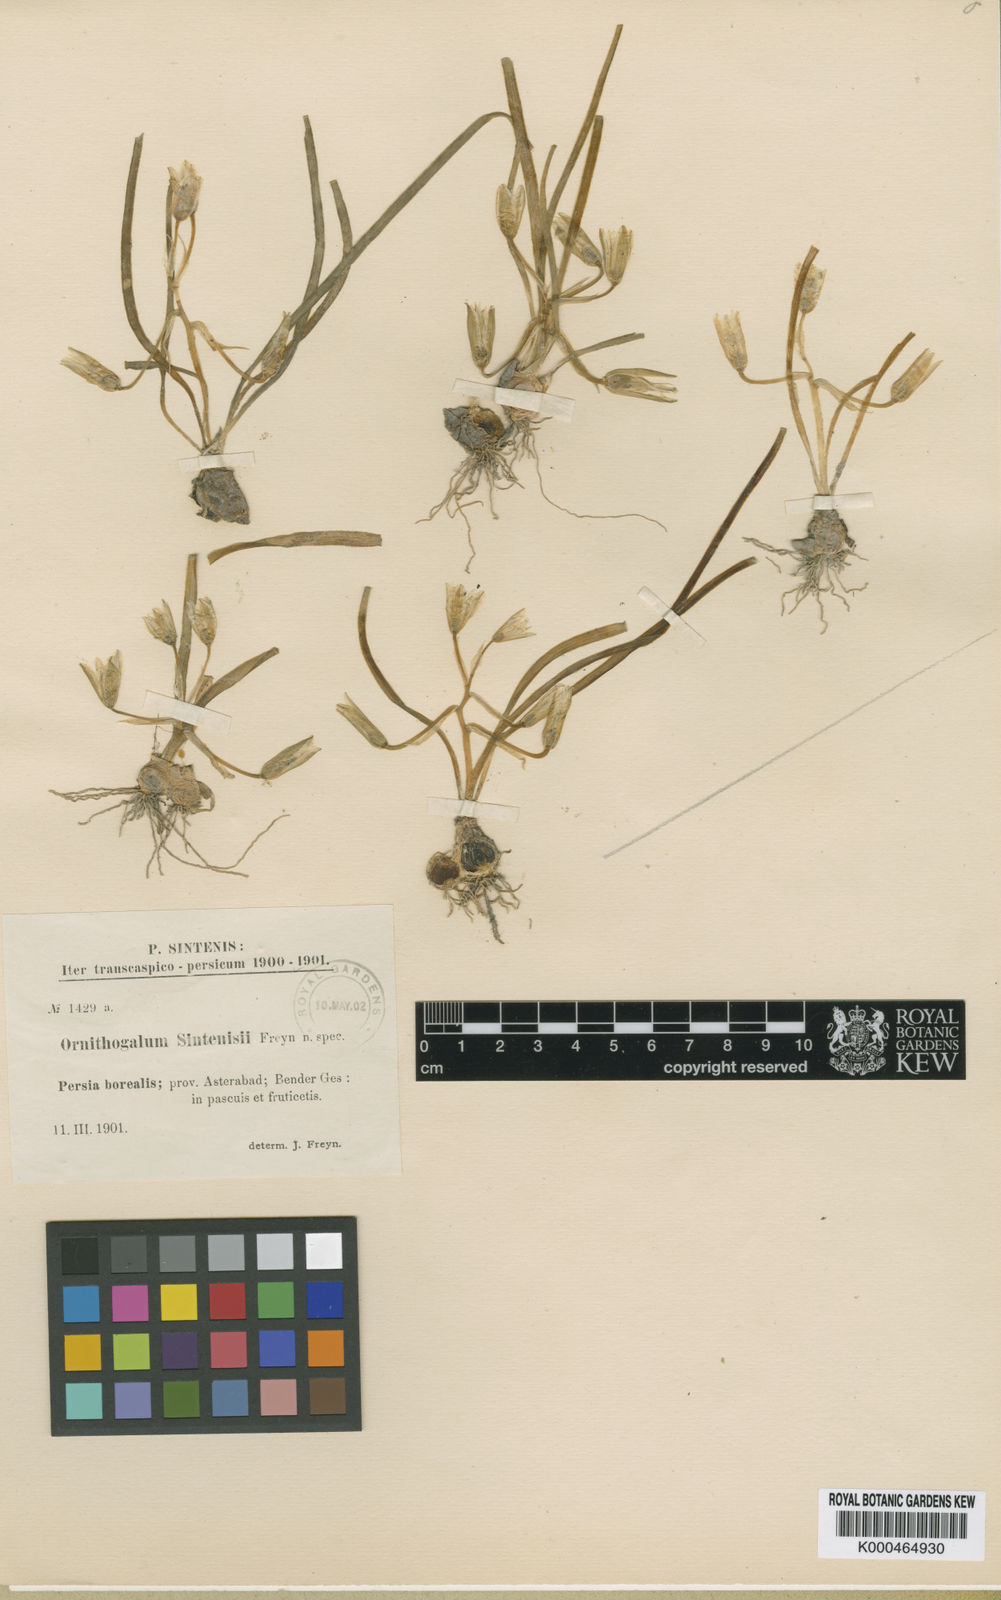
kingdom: Plantae
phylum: Tracheophyta
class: Liliopsida
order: Asparagales
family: Asparagaceae
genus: Ornithogalum
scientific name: Ornithogalum sintenisii
